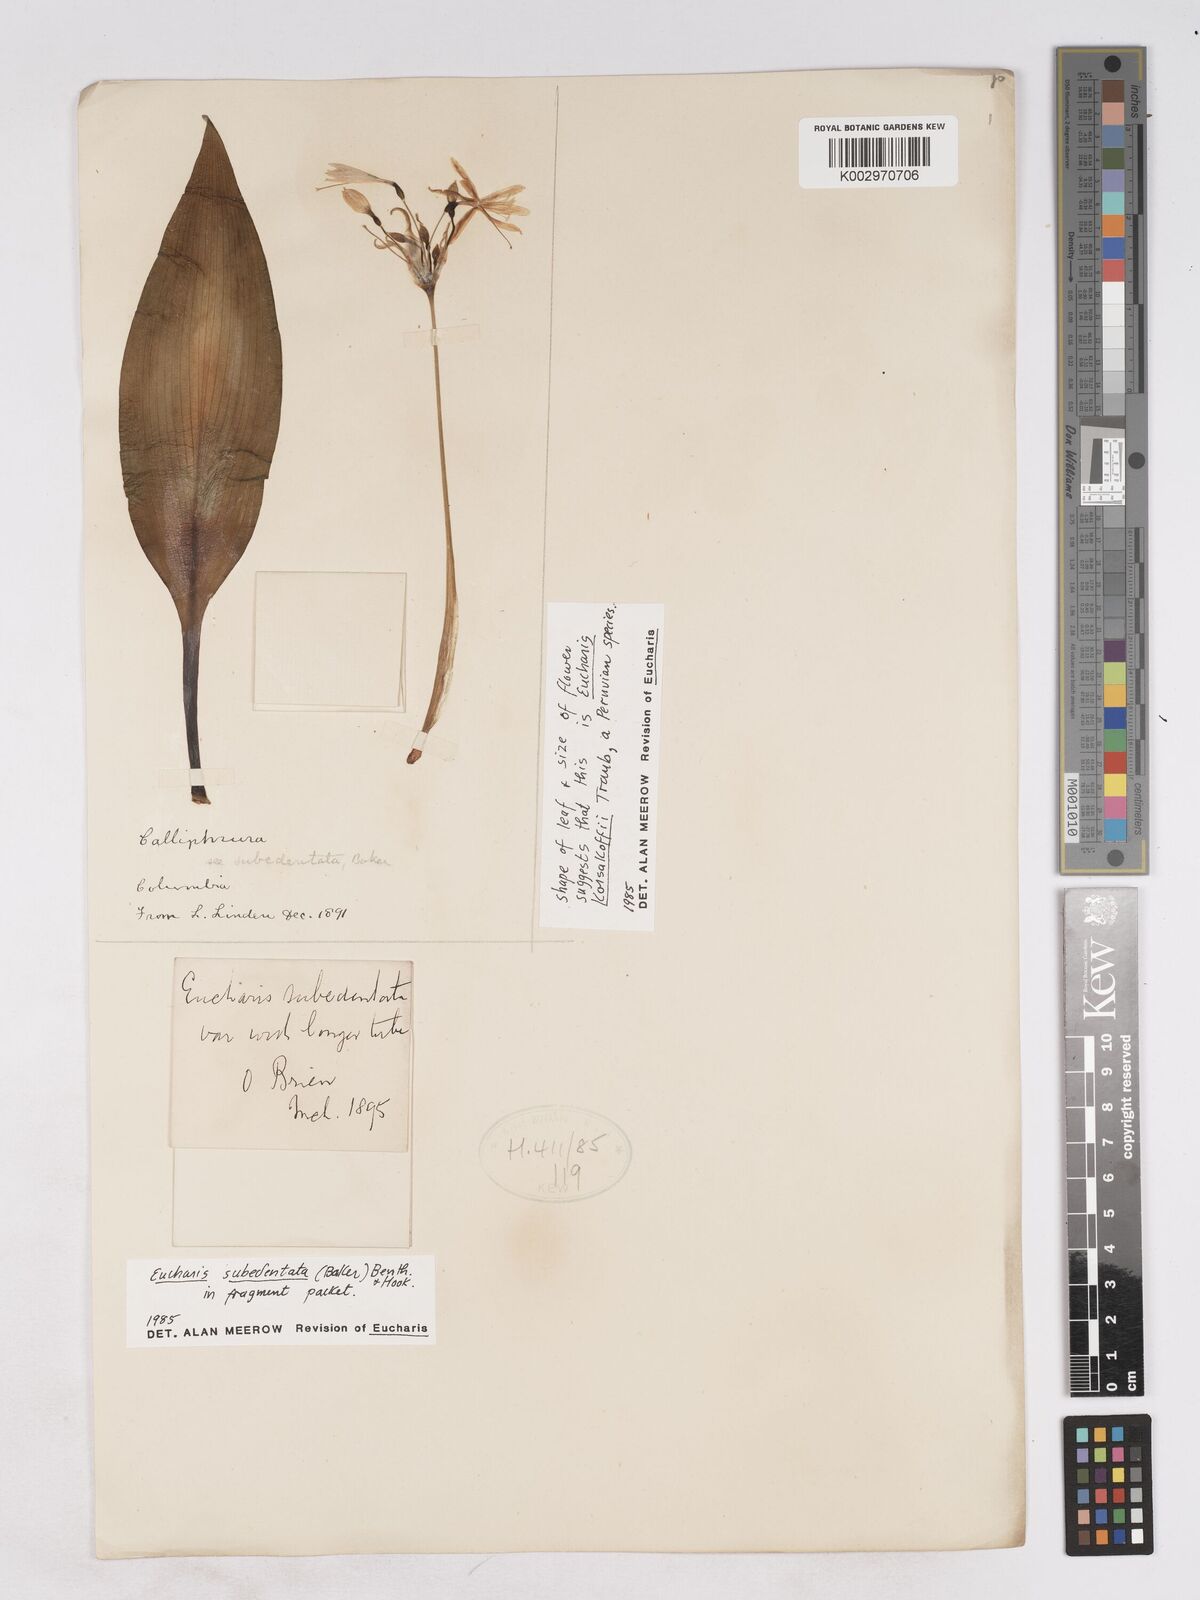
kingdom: Plantae
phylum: Tracheophyta
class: Liliopsida
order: Asparagales
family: Amaryllidaceae
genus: Urceolina
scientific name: Urceolina subedentata
